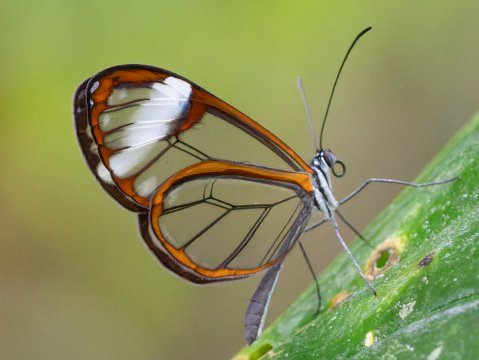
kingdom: Animalia
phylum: Arthropoda
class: Insecta
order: Lepidoptera
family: Nymphalidae
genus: Greta
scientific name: Greta andromica
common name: Andromica Clearwing
